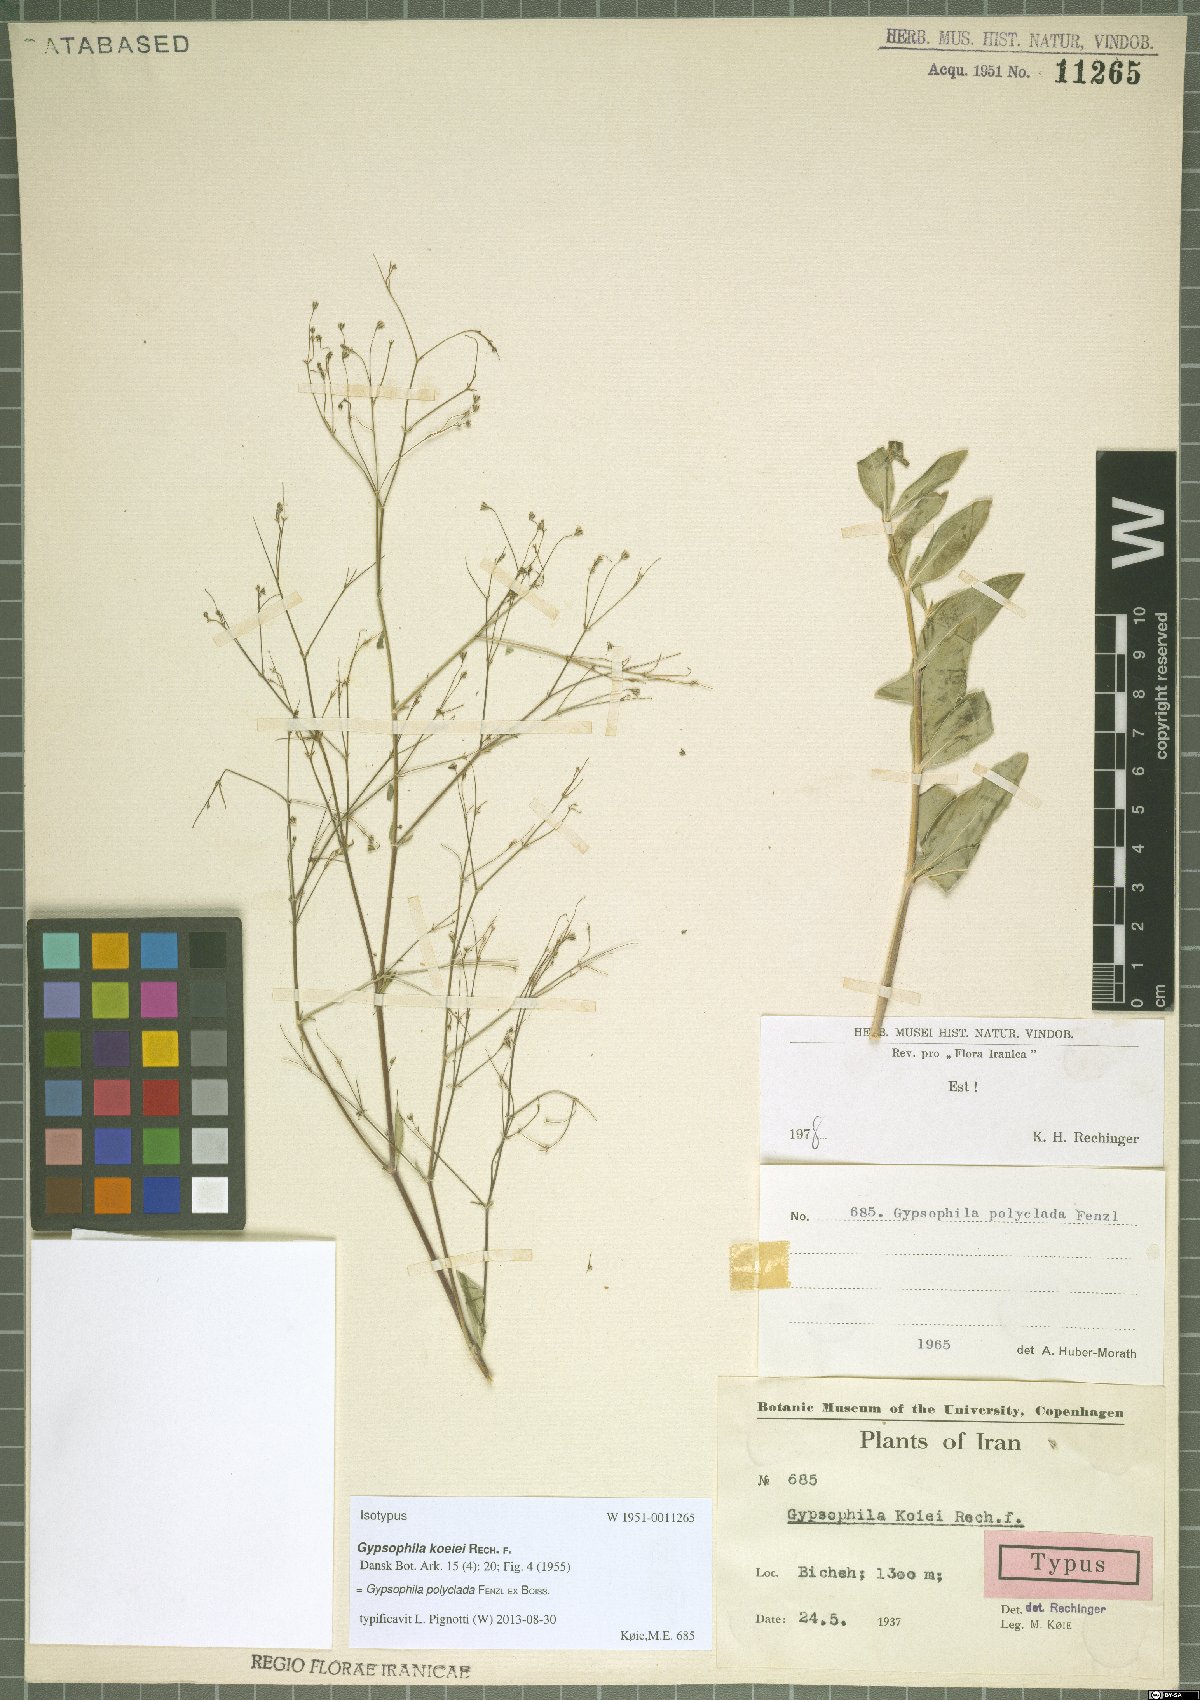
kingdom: Plantae
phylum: Tracheophyta
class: Magnoliopsida
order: Caryophyllales
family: Caryophyllaceae
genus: Gypsophila
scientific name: Gypsophila polyclada
